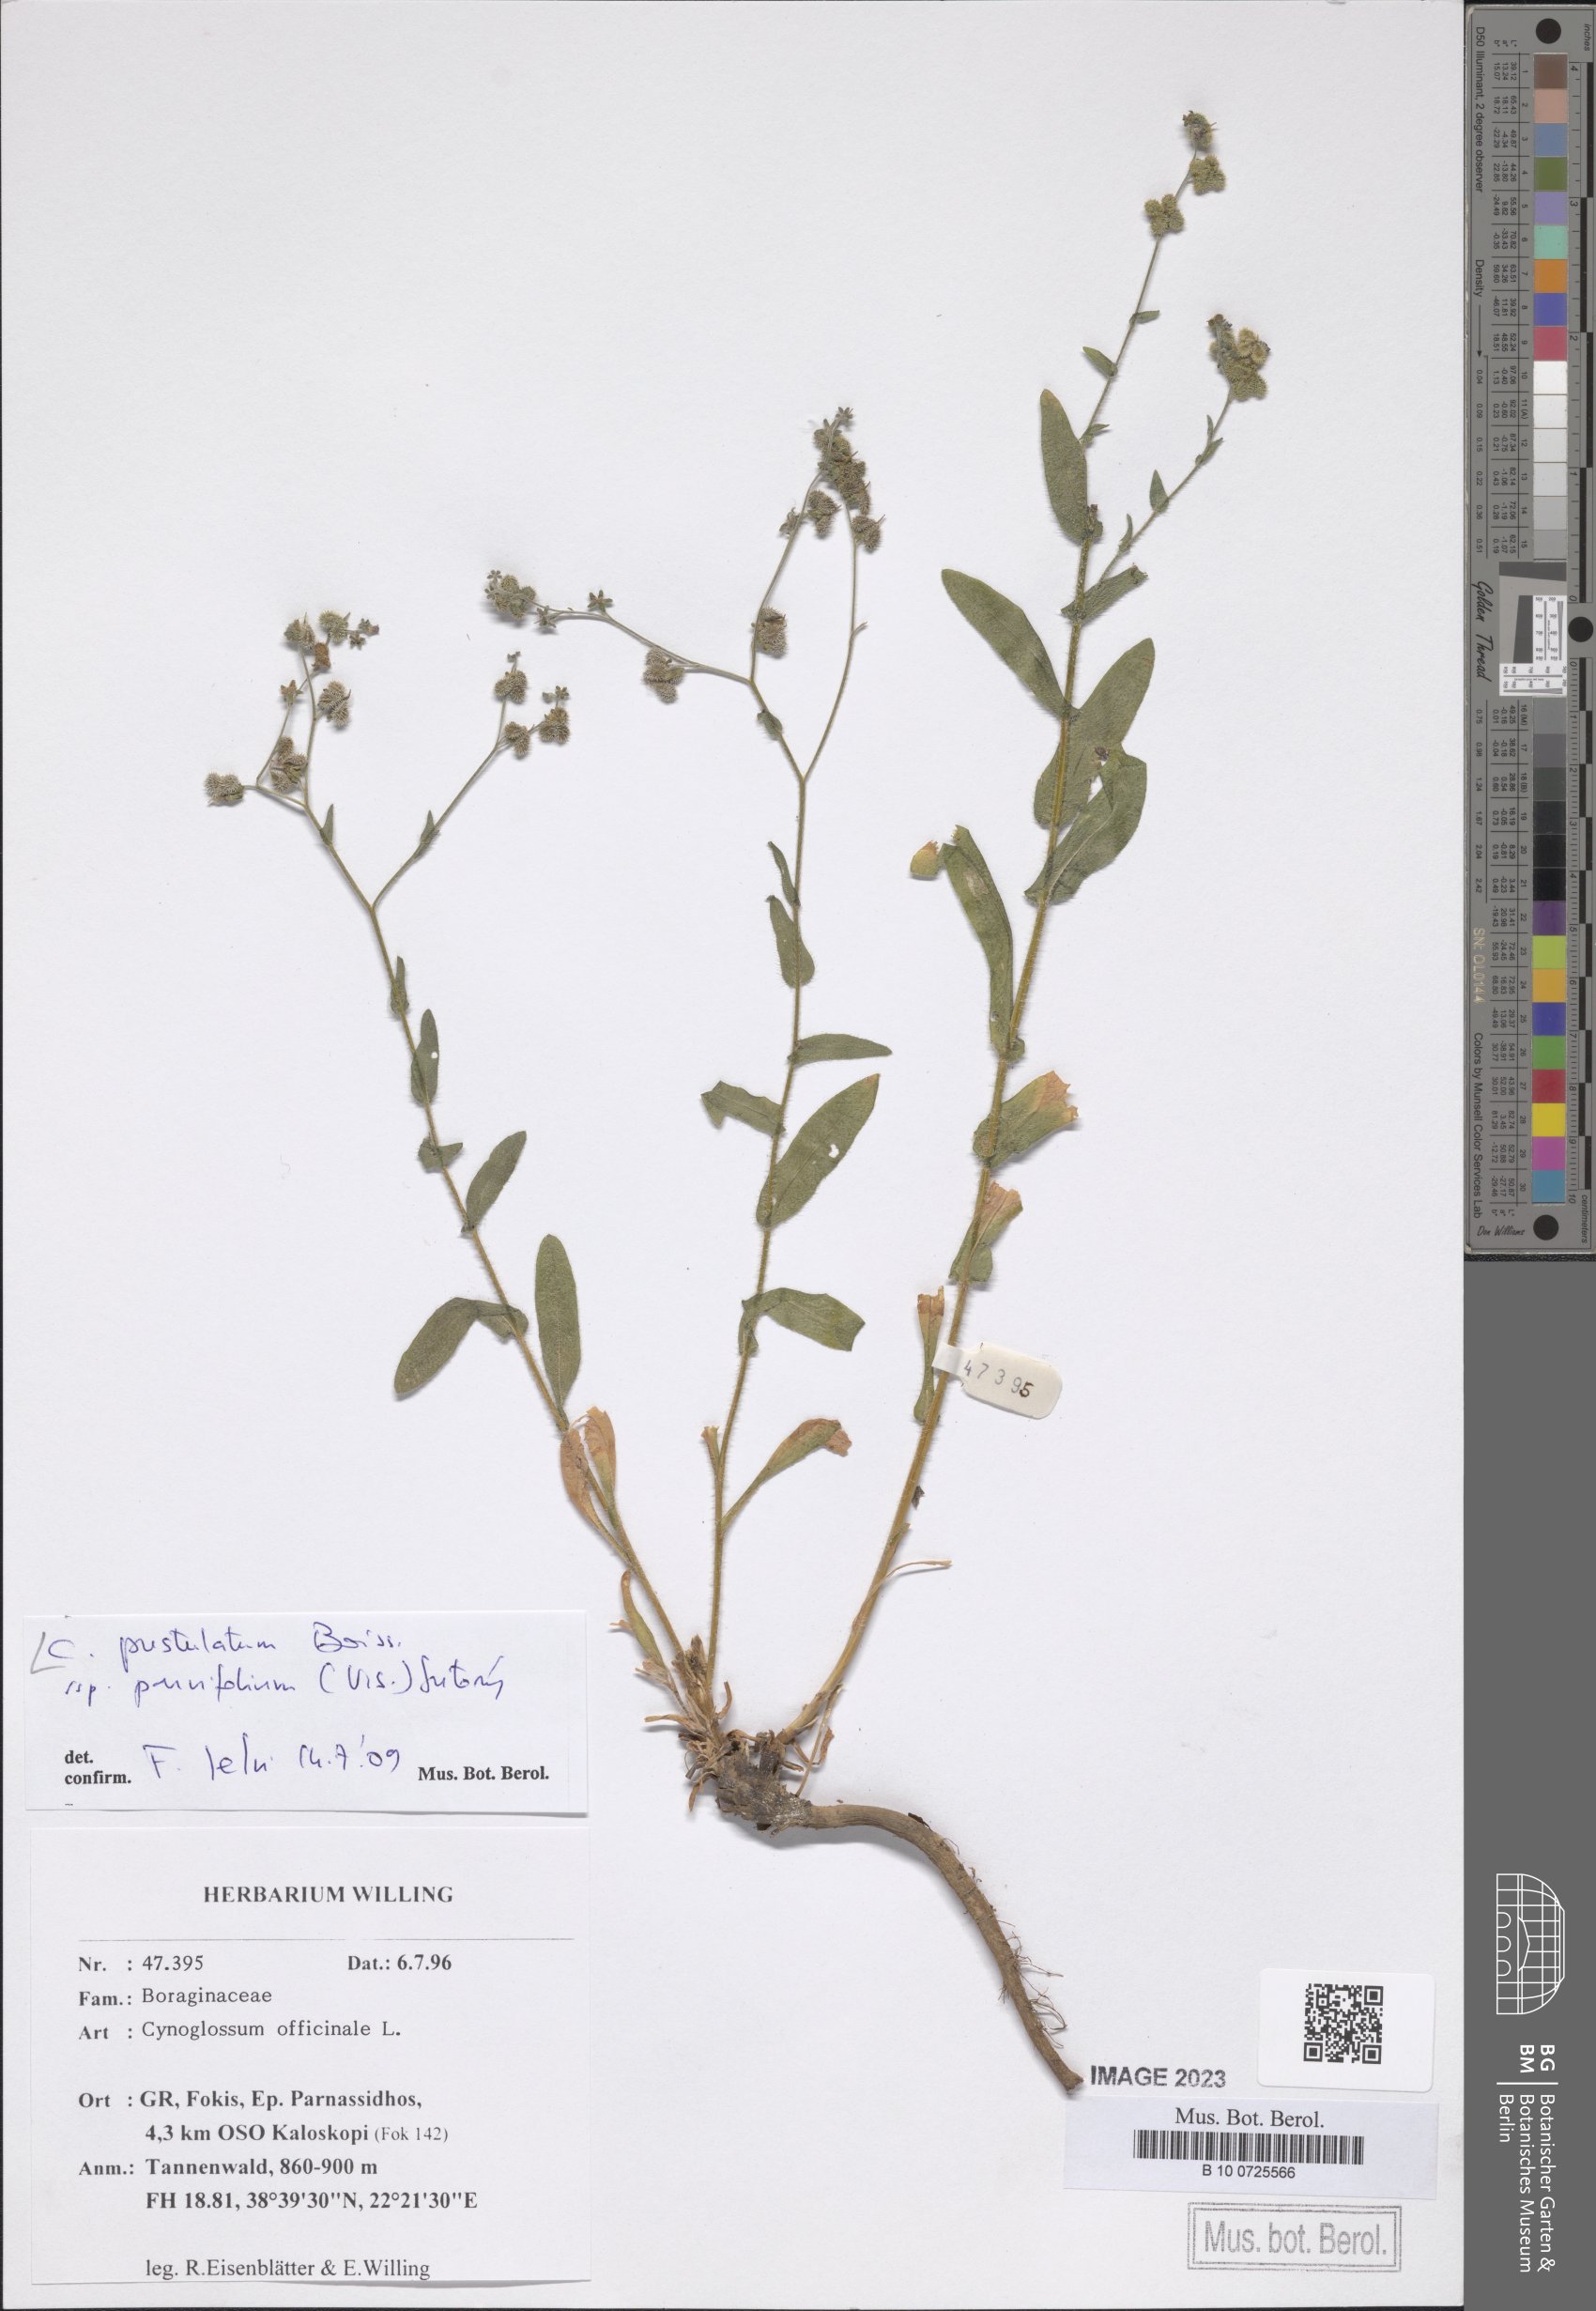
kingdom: Plantae
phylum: Tracheophyta
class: Magnoliopsida
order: Boraginales
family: Boraginaceae
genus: Cynoglossum
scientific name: Cynoglossum pustulatum
